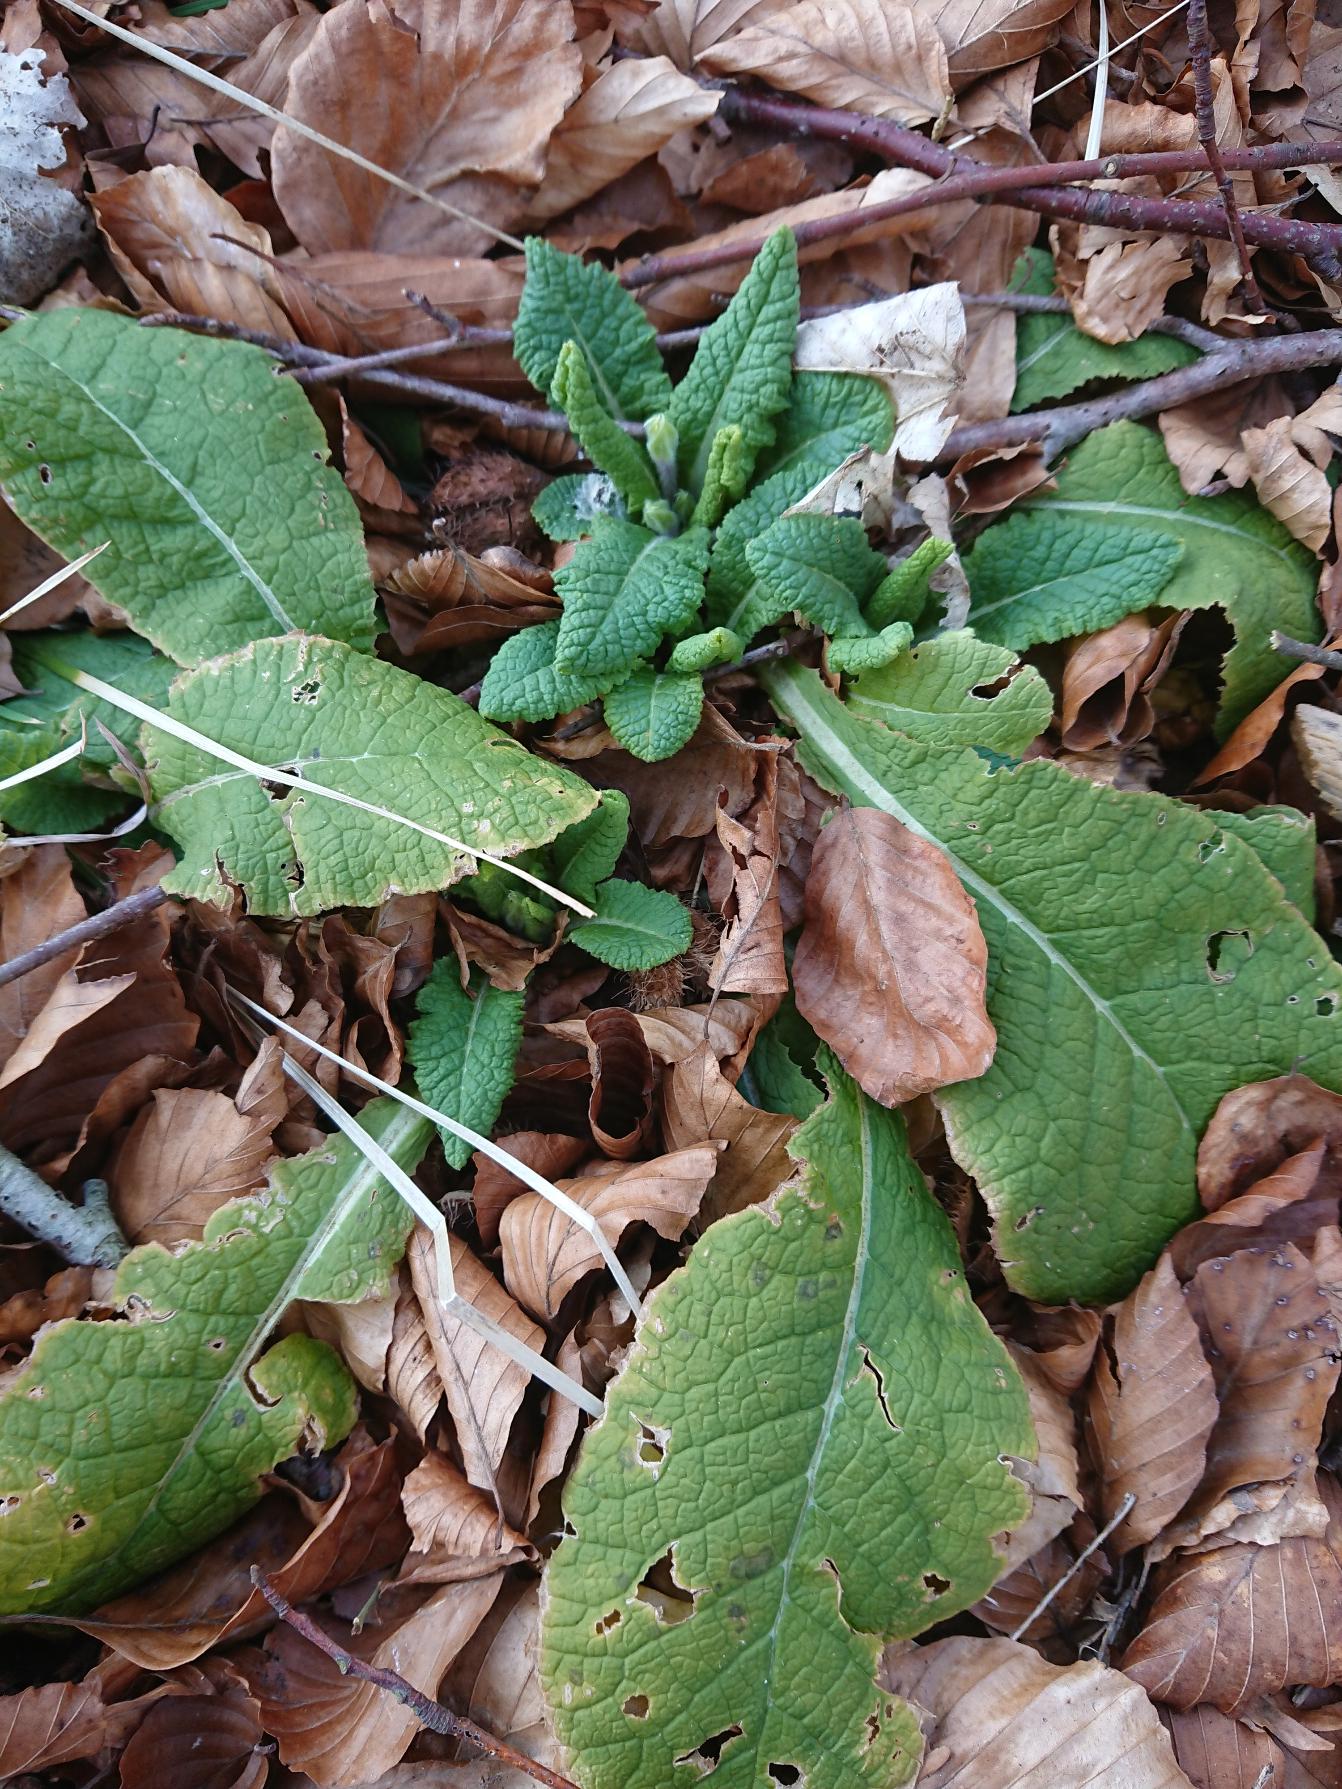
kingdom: Plantae
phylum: Tracheophyta
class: Magnoliopsida
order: Ericales
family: Primulaceae
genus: Primula
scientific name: Primula vulgaris
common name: Storblomstret kodriver
